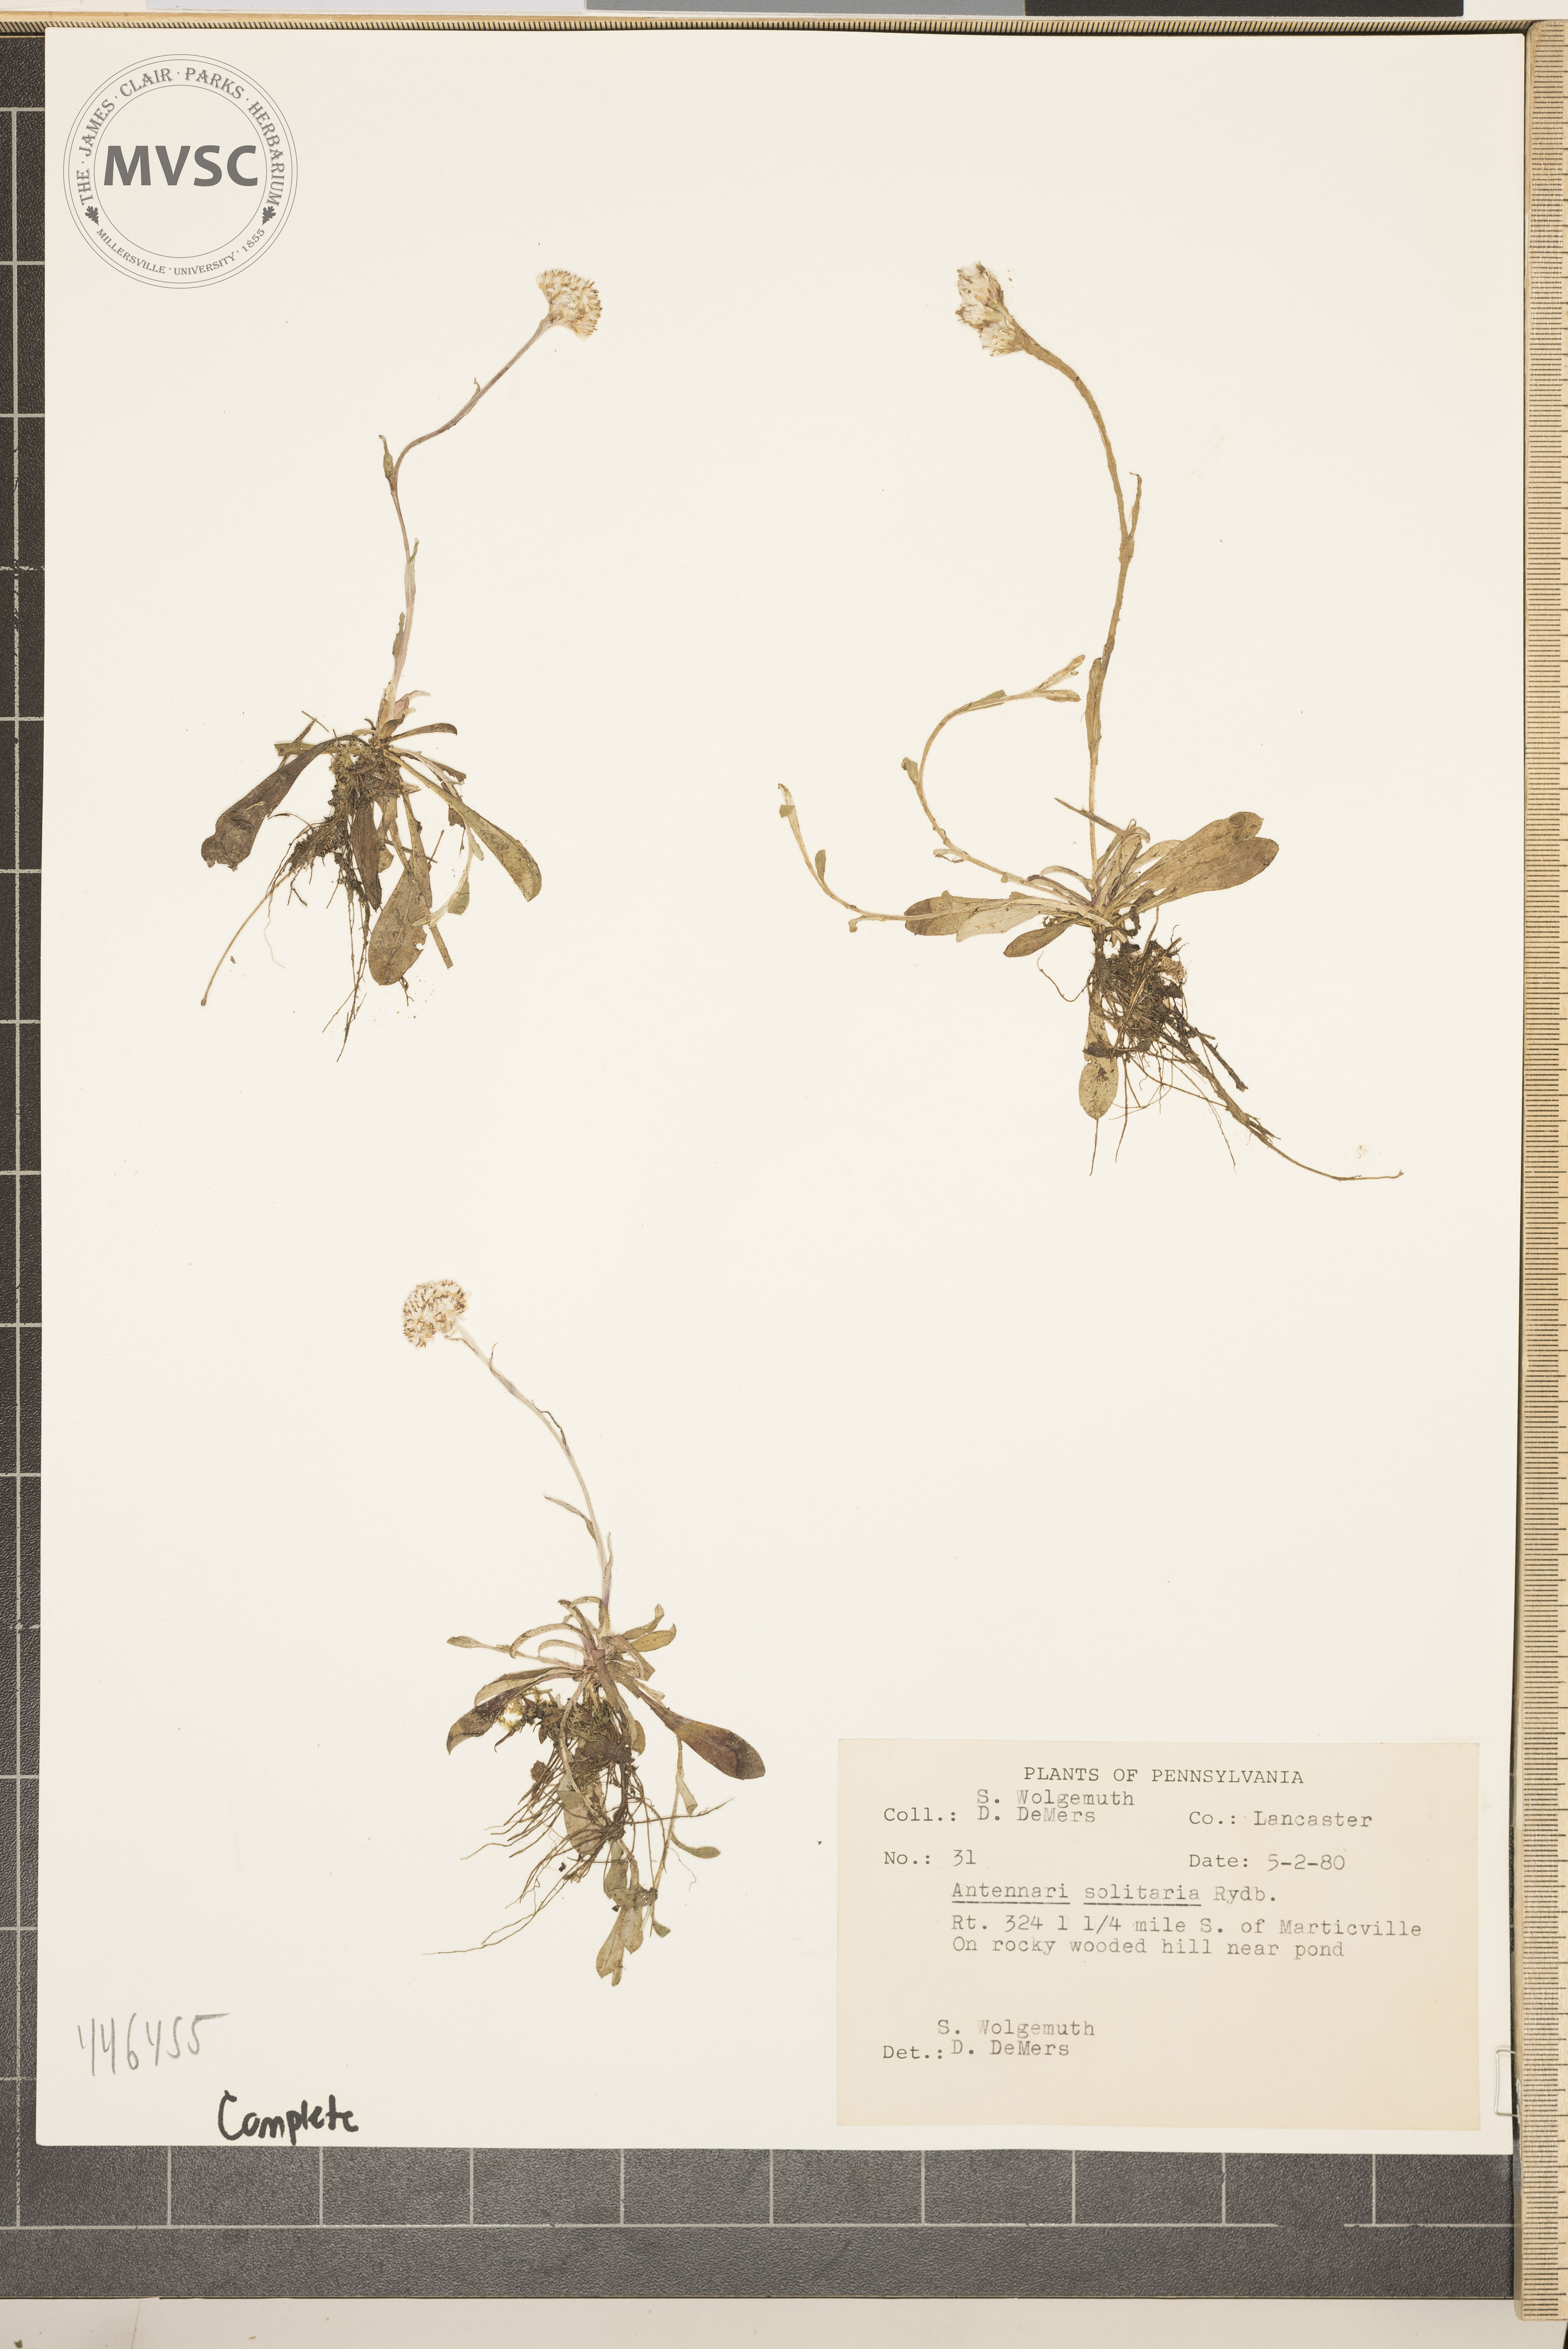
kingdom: Plantae
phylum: Tracheophyta
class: Magnoliopsida
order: Asterales
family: Asteraceae
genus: Antennaria
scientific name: Antennaria howellii
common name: Howell's pussytoes
